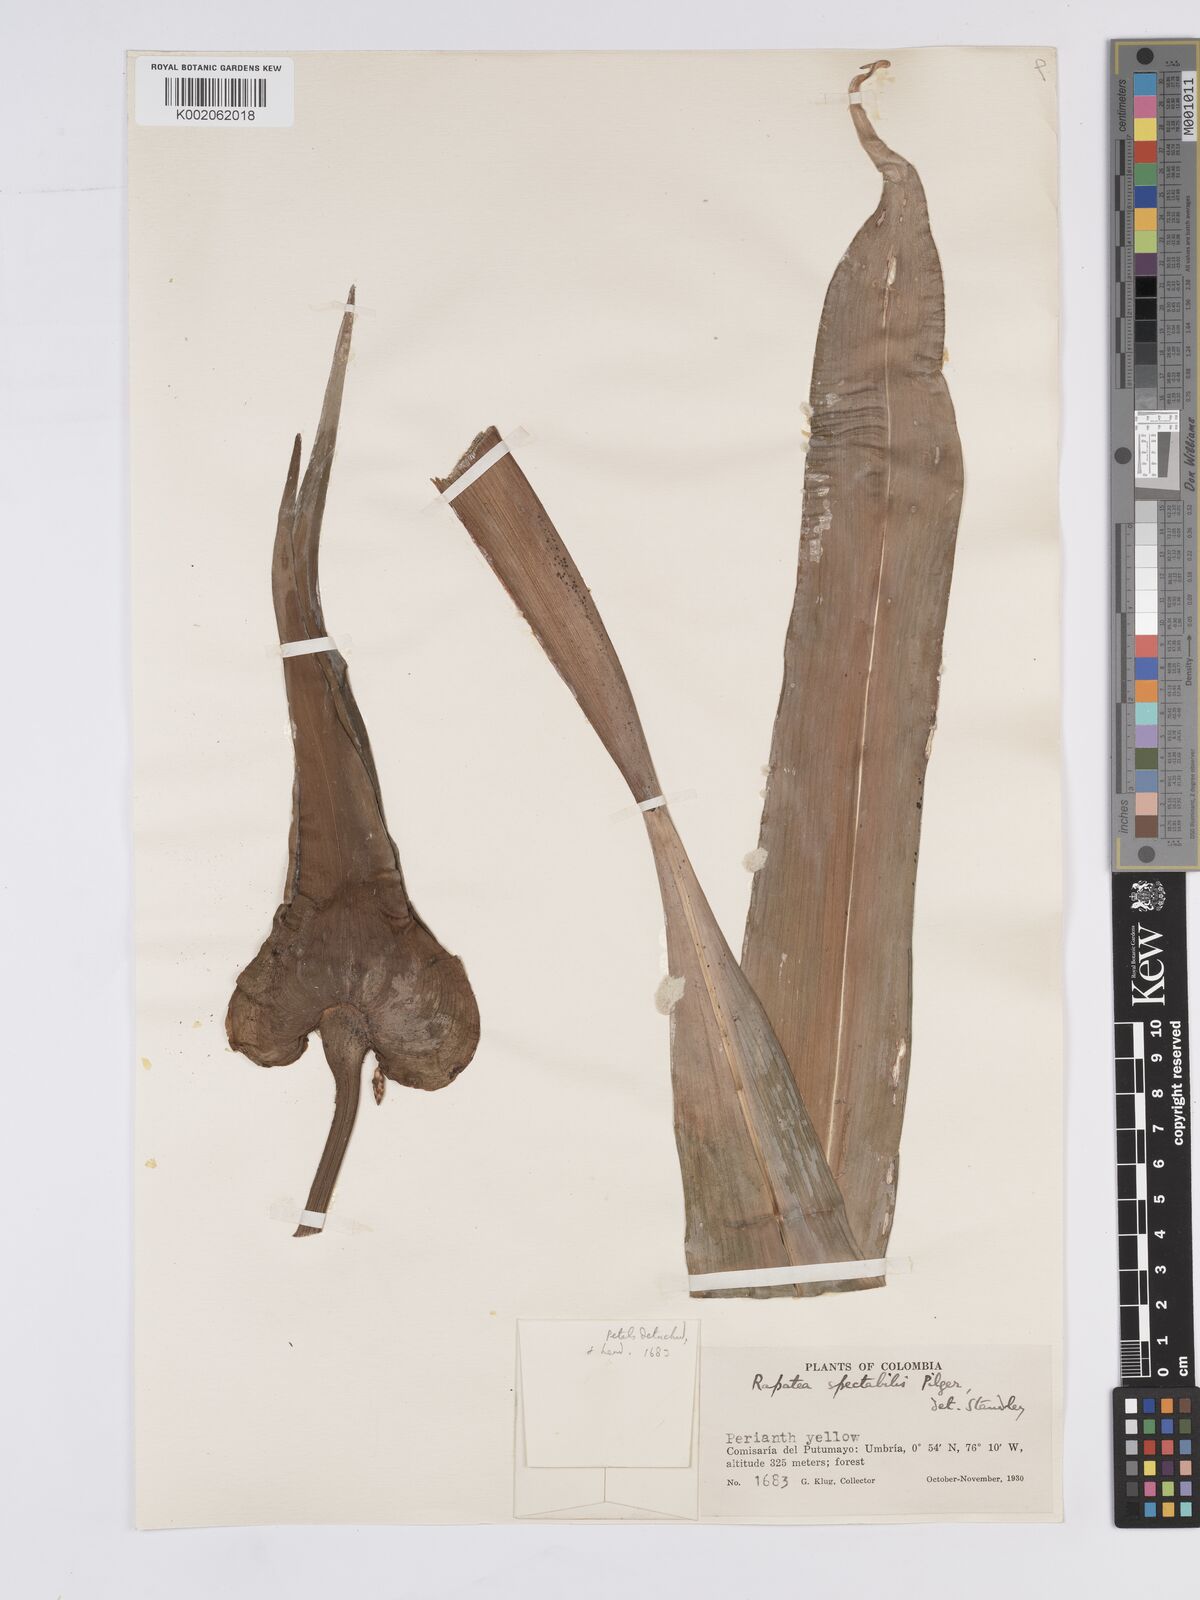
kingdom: Plantae
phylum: Tracheophyta
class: Liliopsida
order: Poales
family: Rapateaceae
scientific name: Rapateaceae
